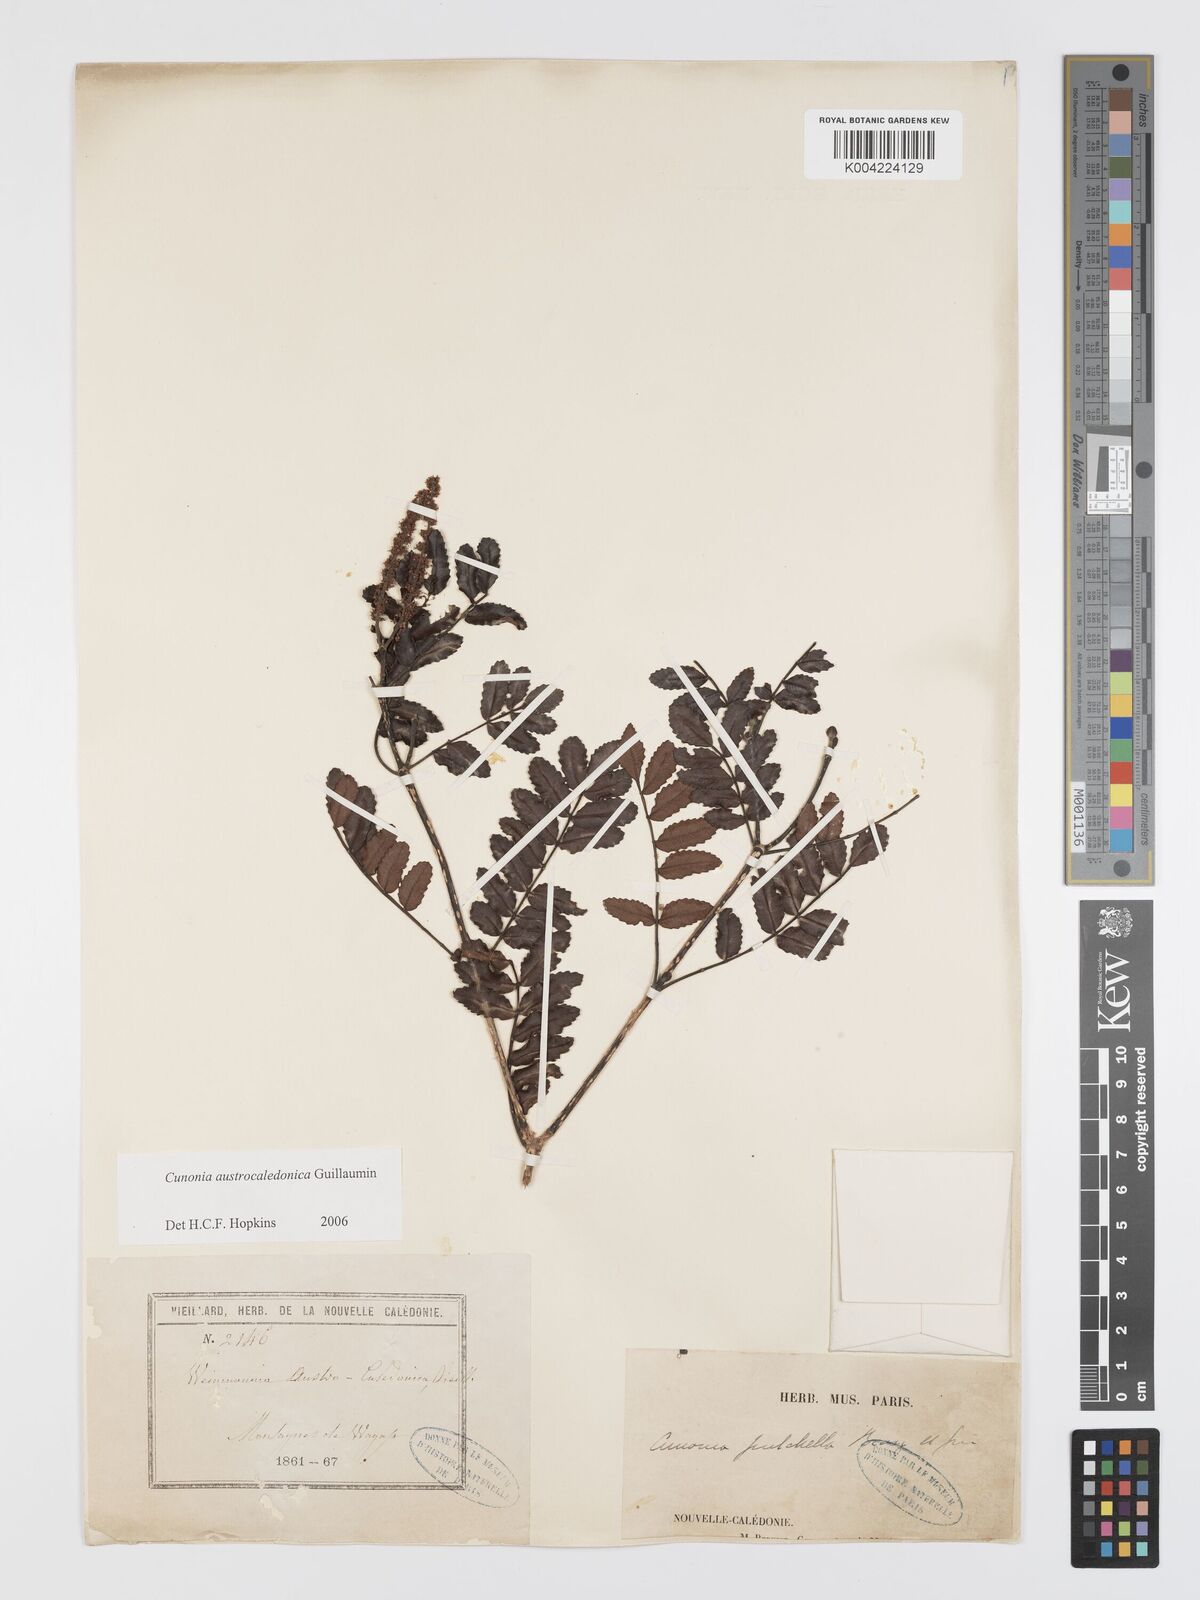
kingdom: Plantae
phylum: Tracheophyta
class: Magnoliopsida
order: Oxalidales
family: Cunoniaceae
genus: Cunonia
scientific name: Cunonia austrocaledonica
